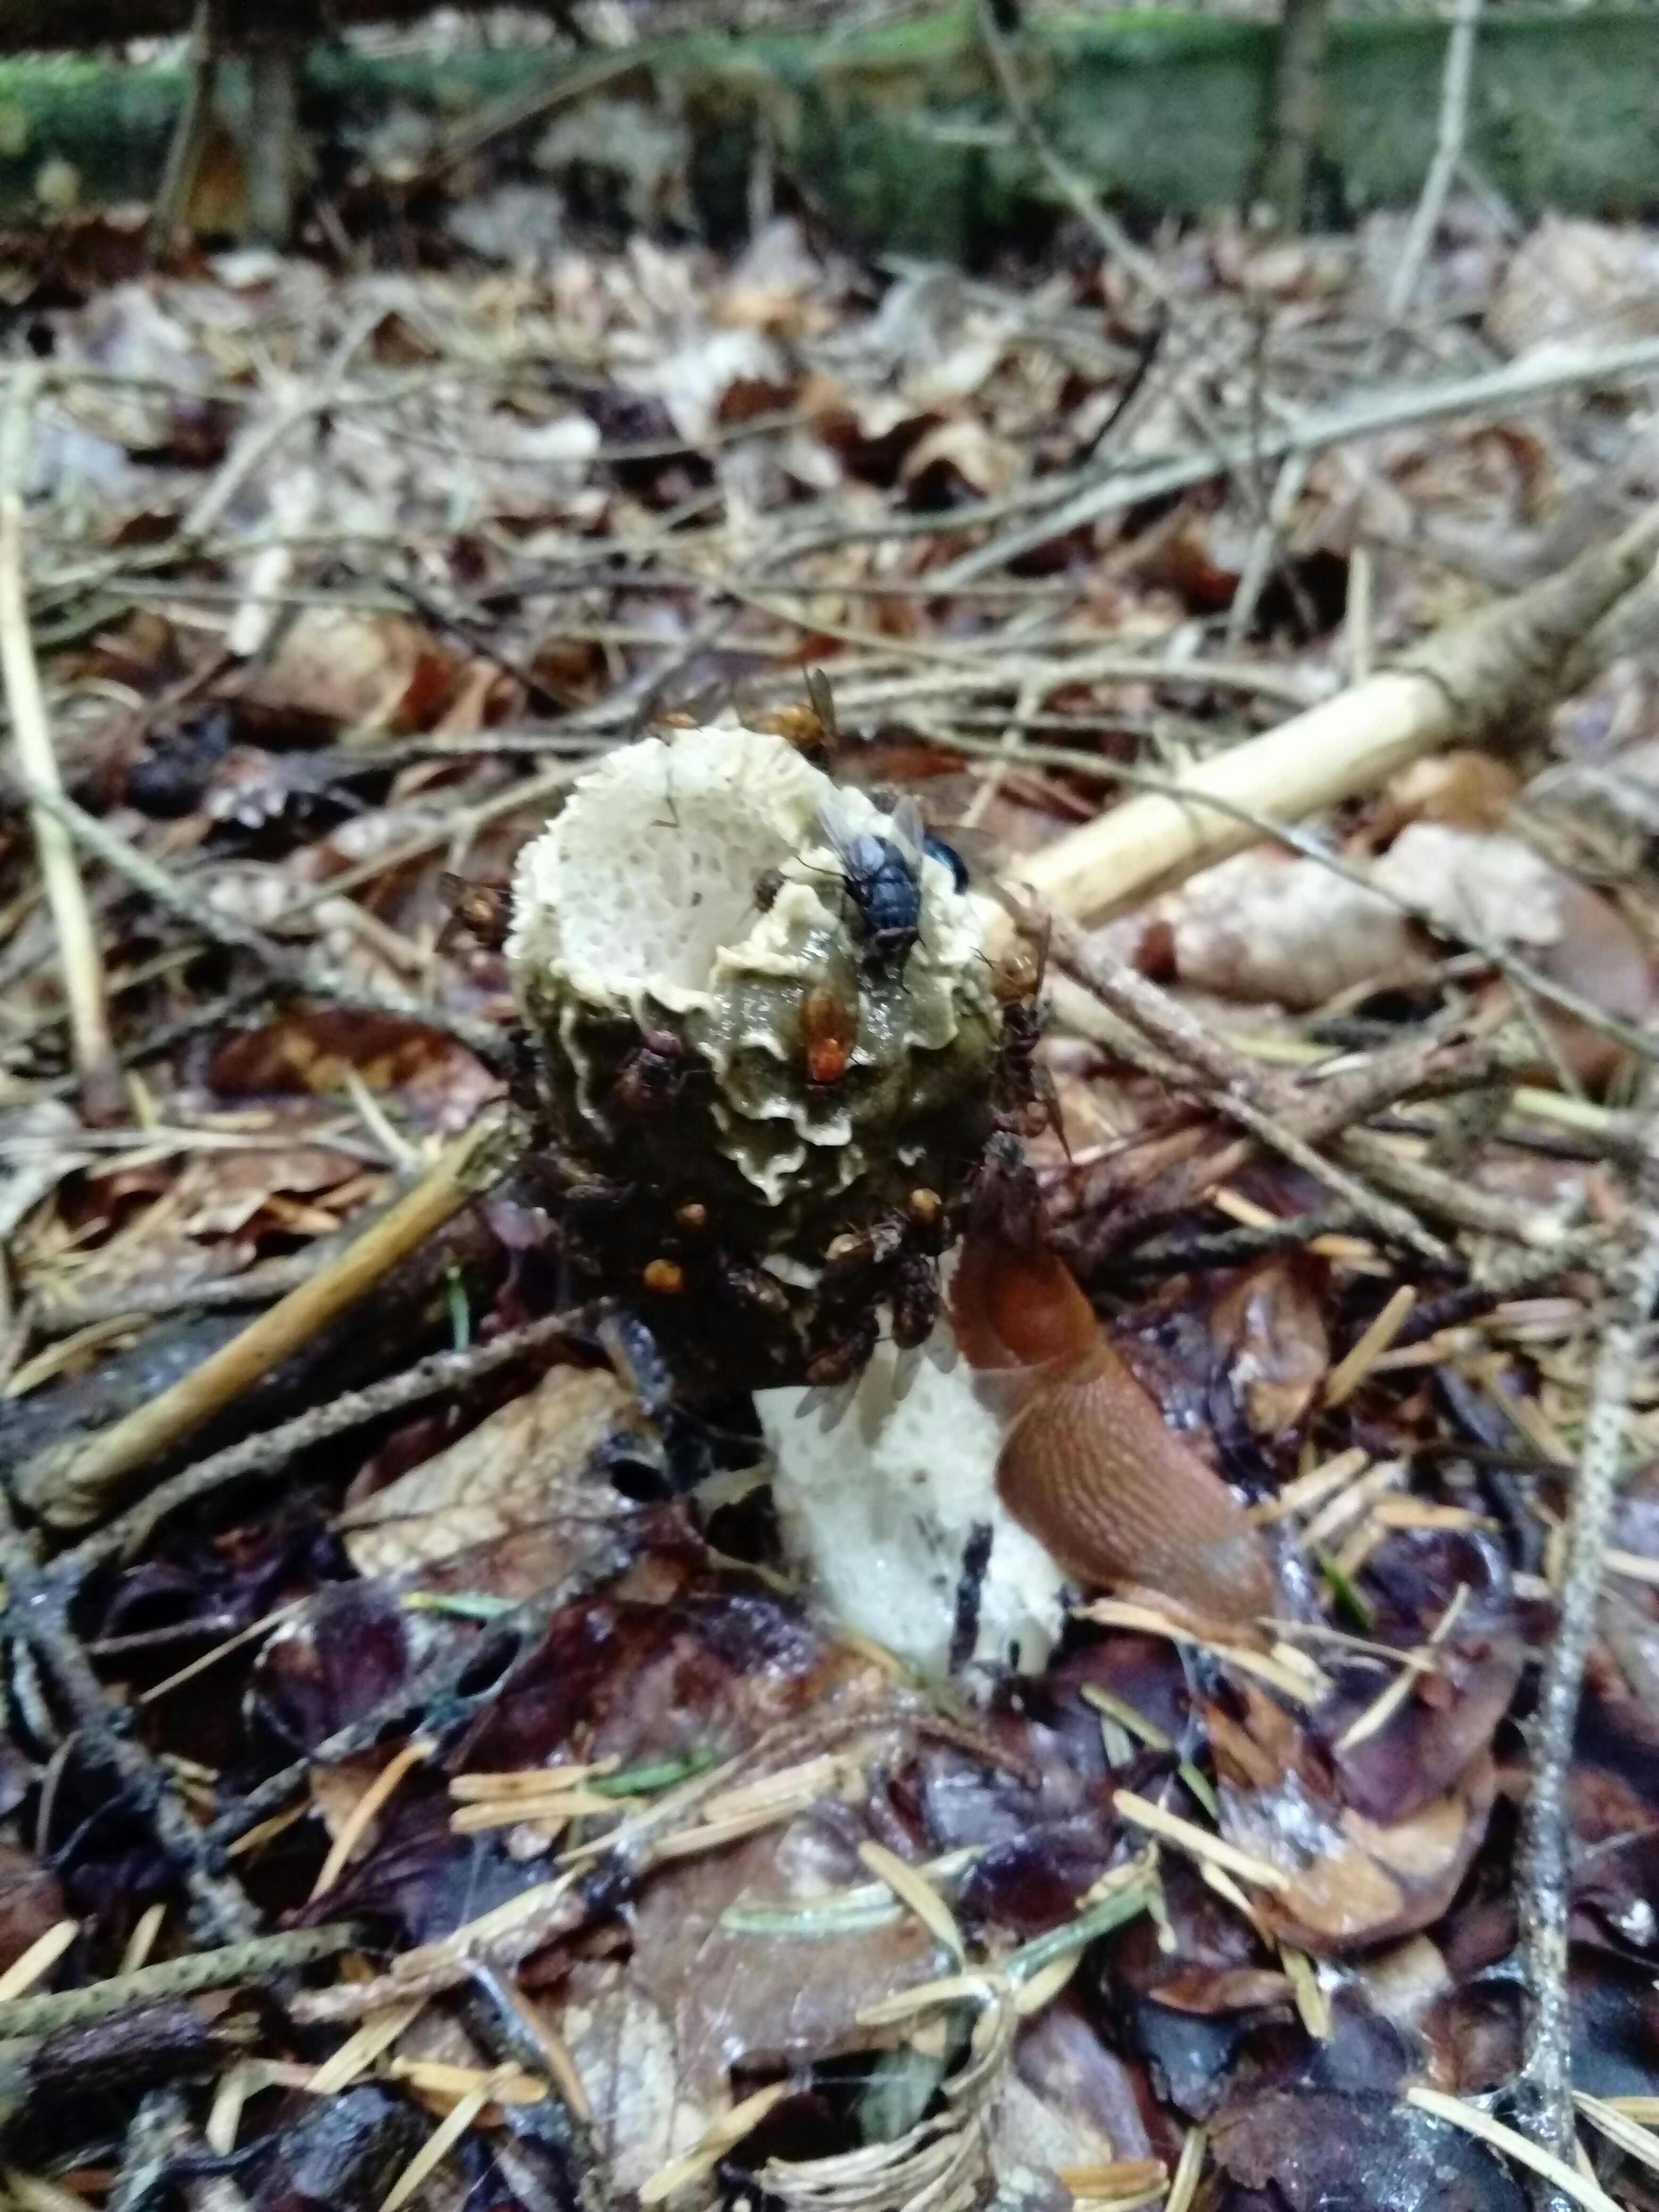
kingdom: Fungi
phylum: Basidiomycota
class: Agaricomycetes
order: Phallales
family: Phallaceae
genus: Phallus
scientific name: Phallus impudicus
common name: almindelig stinksvamp
